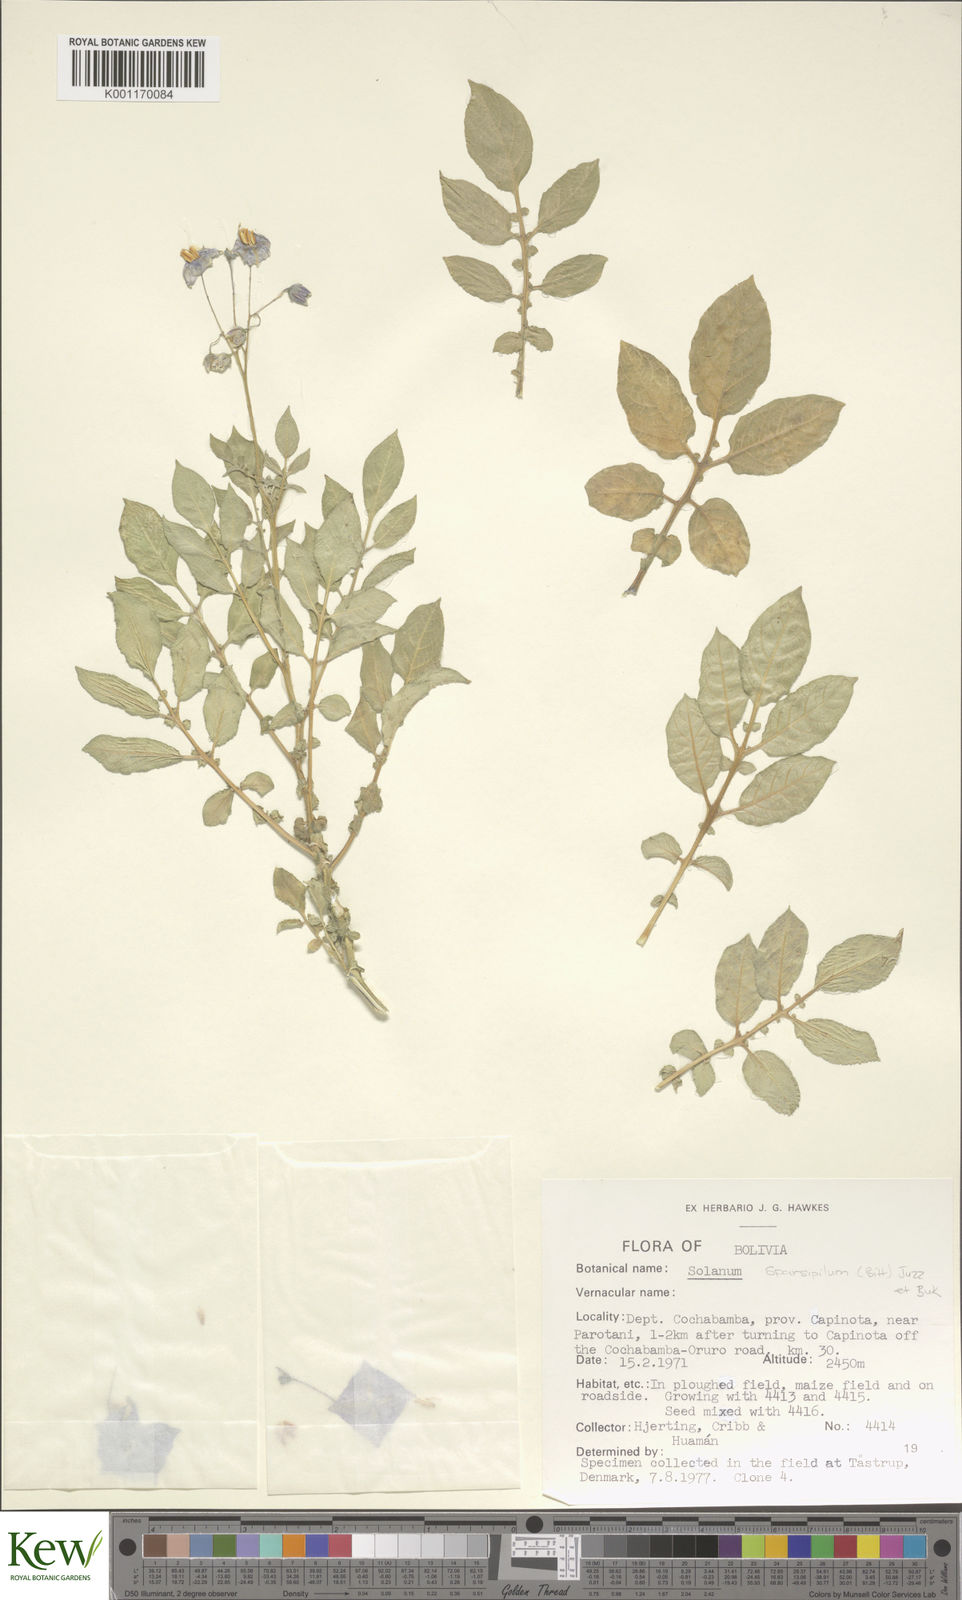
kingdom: Plantae
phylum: Tracheophyta
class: Magnoliopsida
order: Solanales
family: Solanaceae
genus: Solanum
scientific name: Solanum brevicaule
